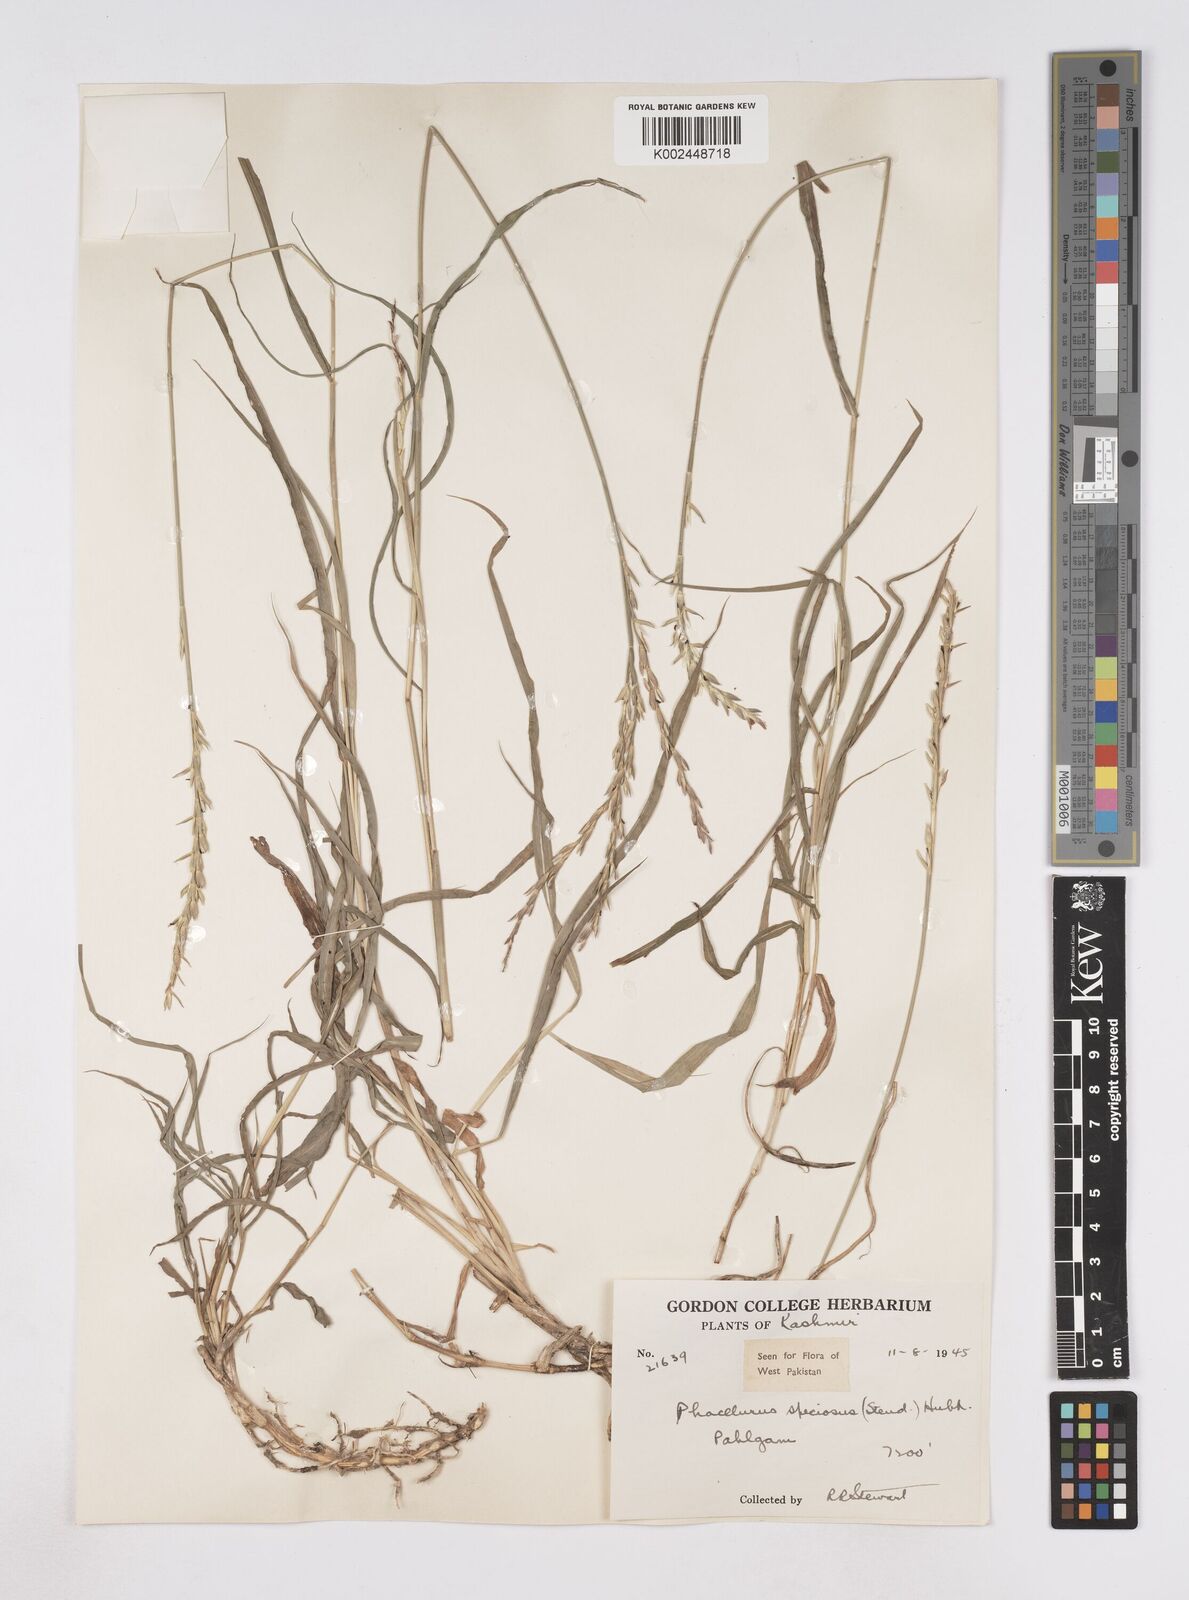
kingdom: Plantae
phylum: Tracheophyta
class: Liliopsida
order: Poales
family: Poaceae
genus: Phacelurus
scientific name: Phacelurus speciosus
